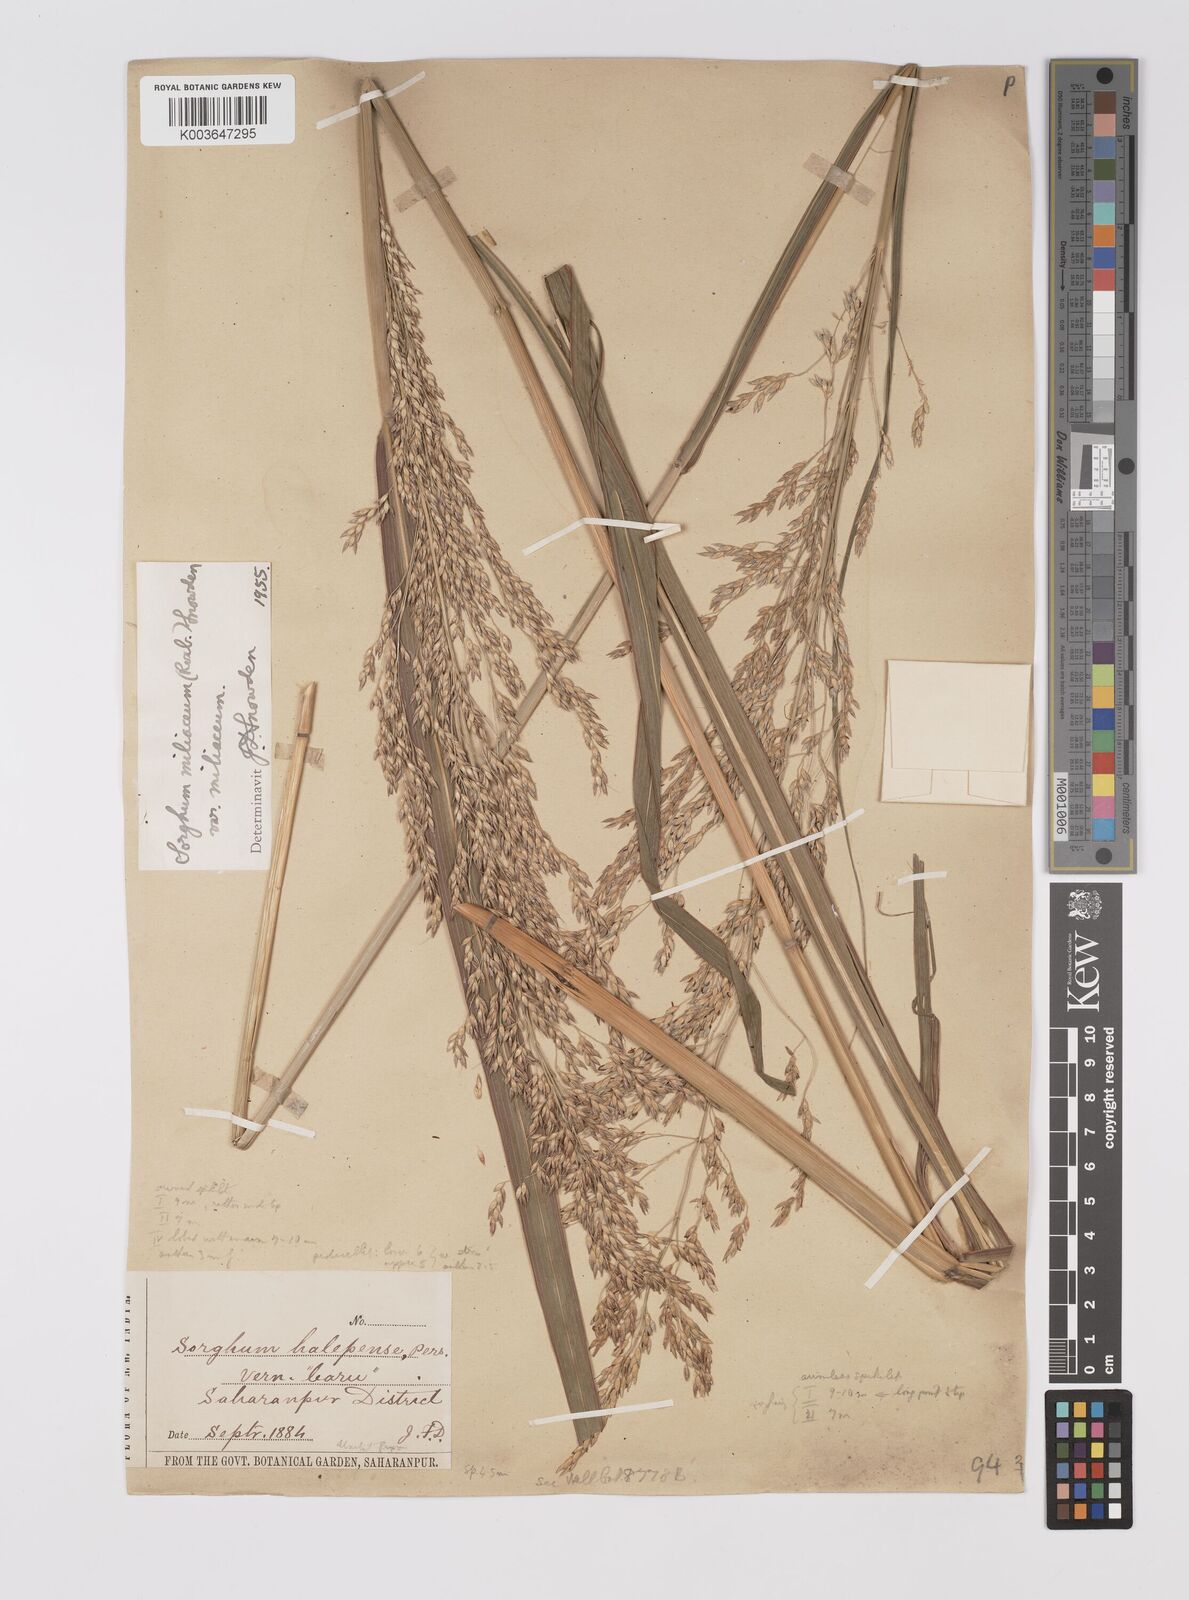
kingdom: Plantae
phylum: Tracheophyta
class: Liliopsida
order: Poales
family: Poaceae
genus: Sorghum
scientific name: Sorghum halepense
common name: Johnson-grass
